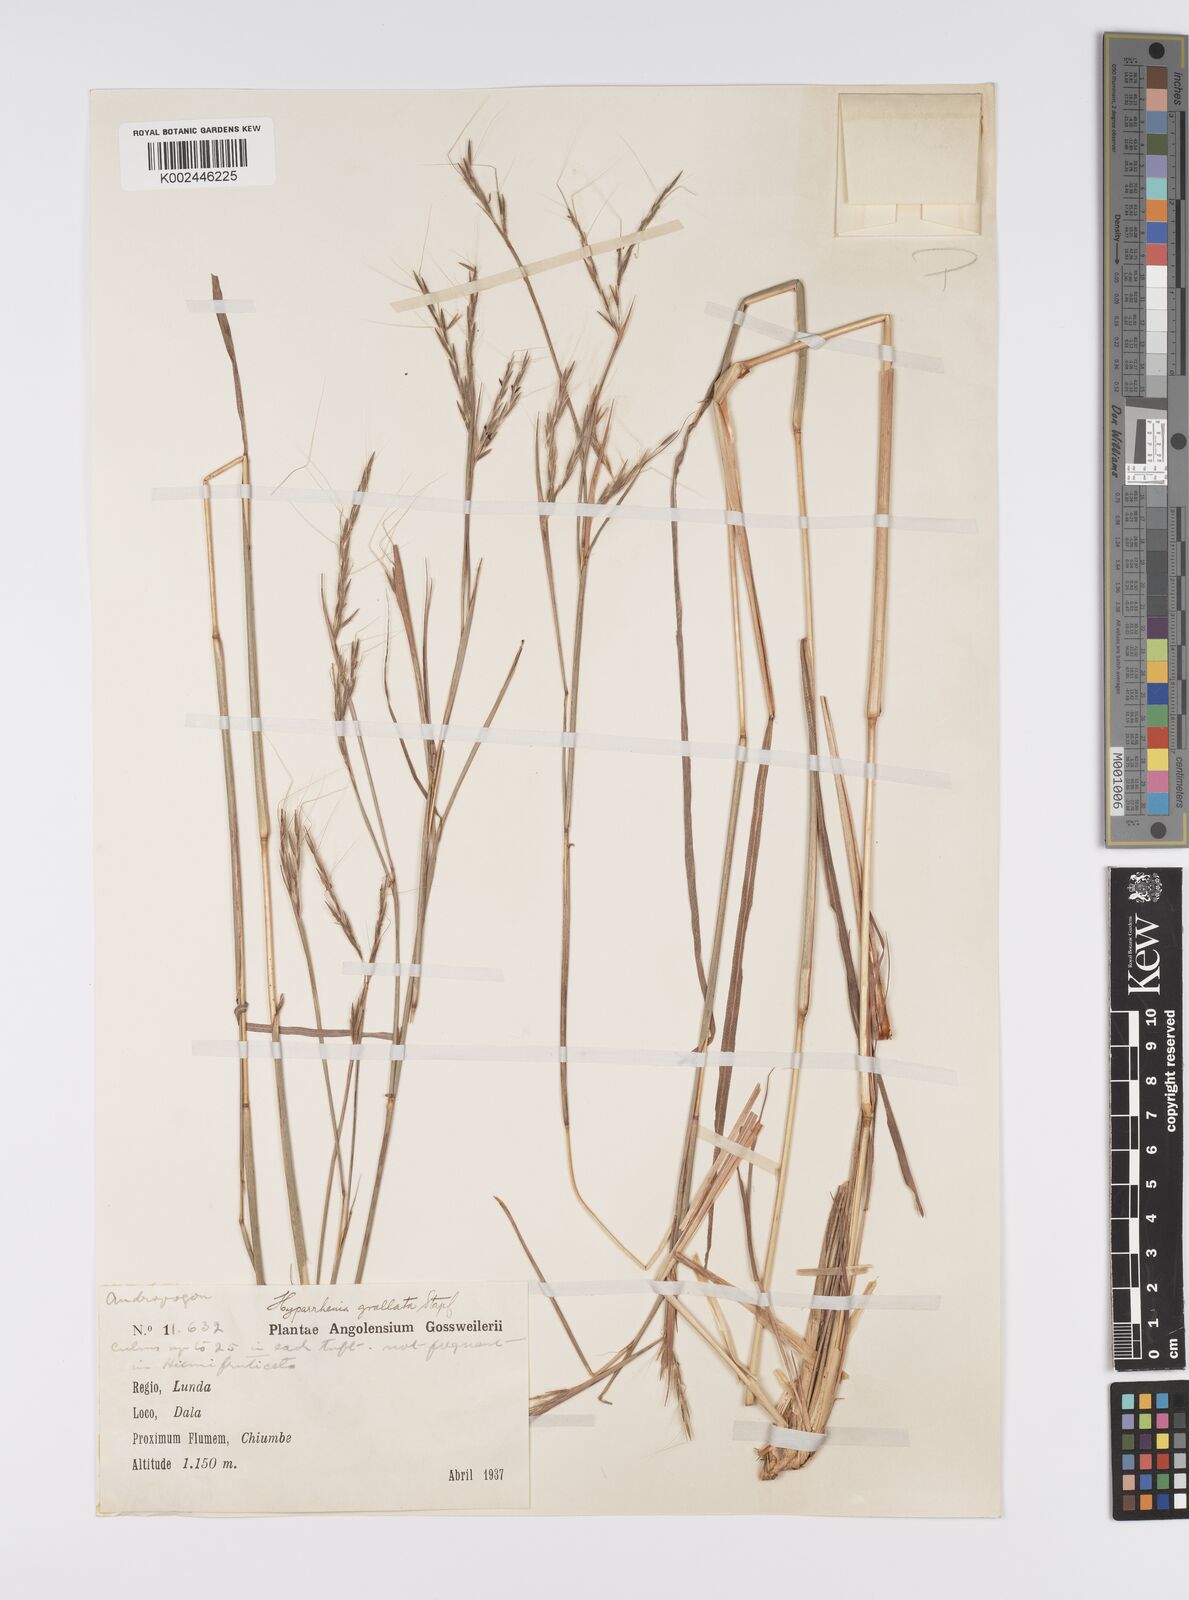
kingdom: Plantae
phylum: Tracheophyta
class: Liliopsida
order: Poales
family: Poaceae
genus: Elymandra
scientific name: Elymandra grallata
